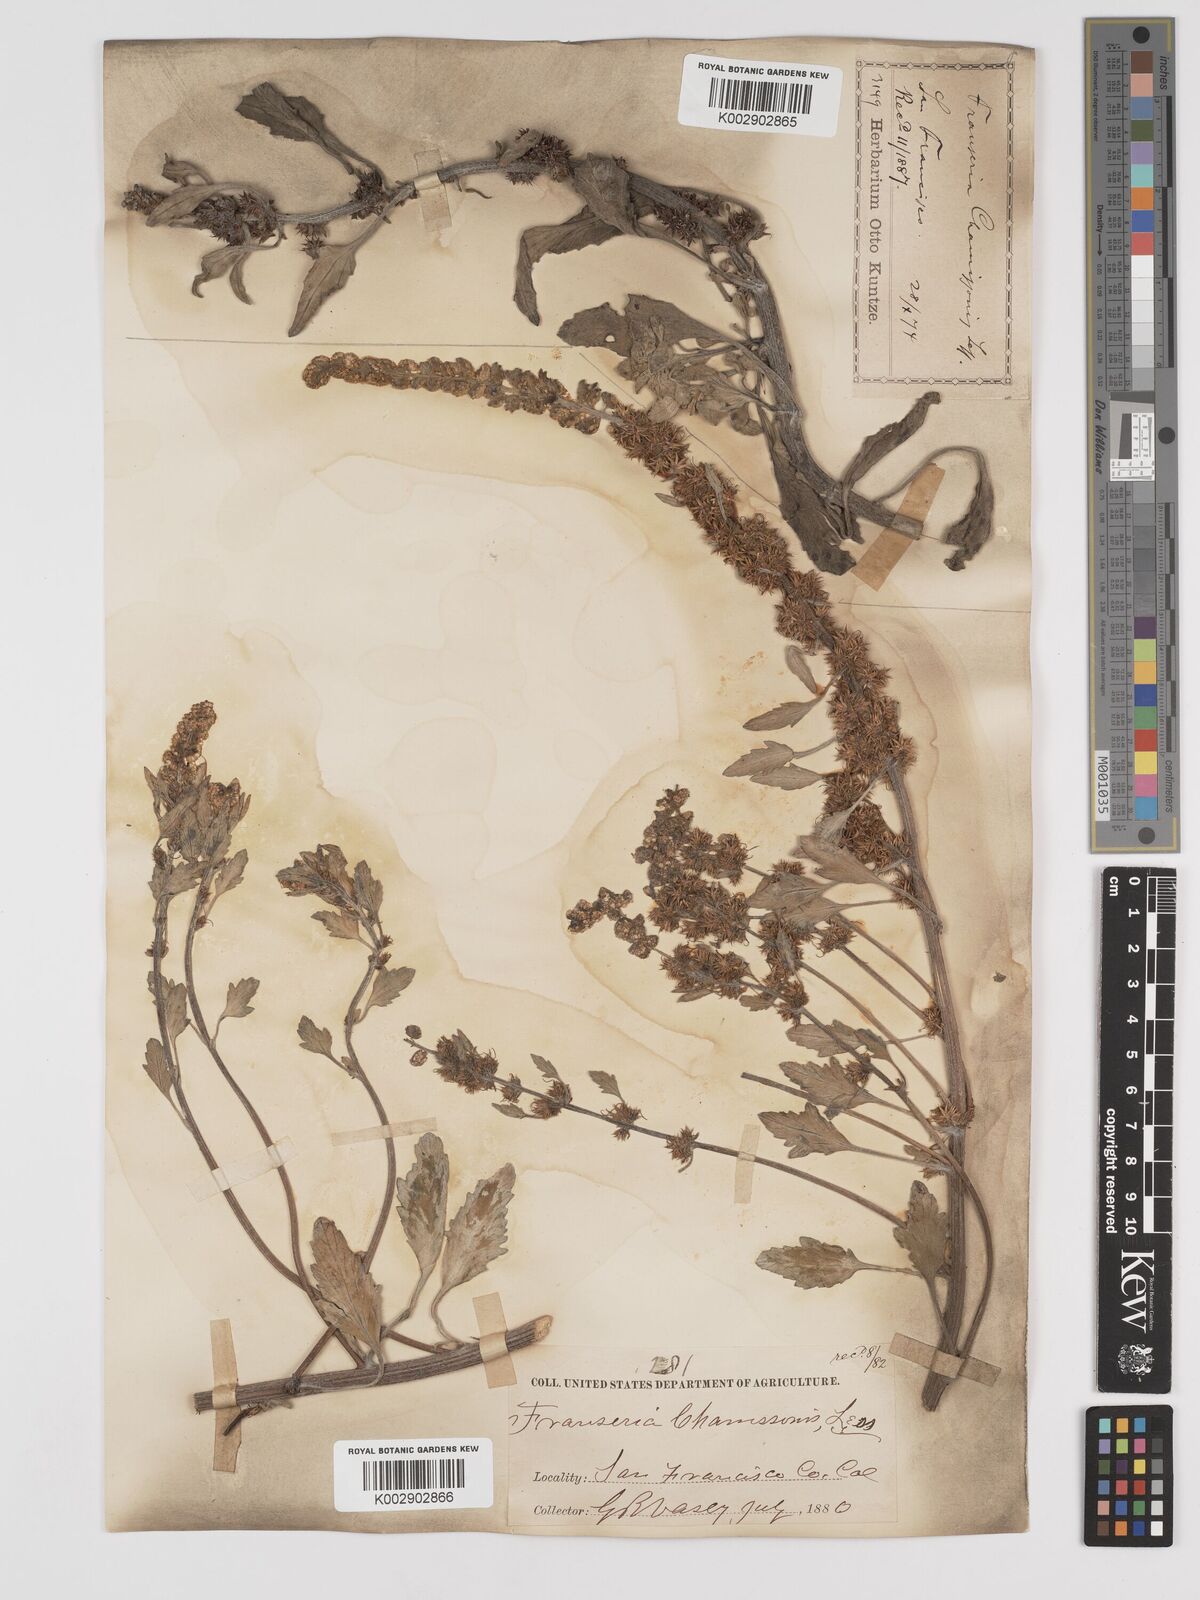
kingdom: Plantae
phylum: Tracheophyta
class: Magnoliopsida
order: Asterales
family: Asteraceae
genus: Ambrosia
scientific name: Ambrosia chamissonis
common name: Beachbur
